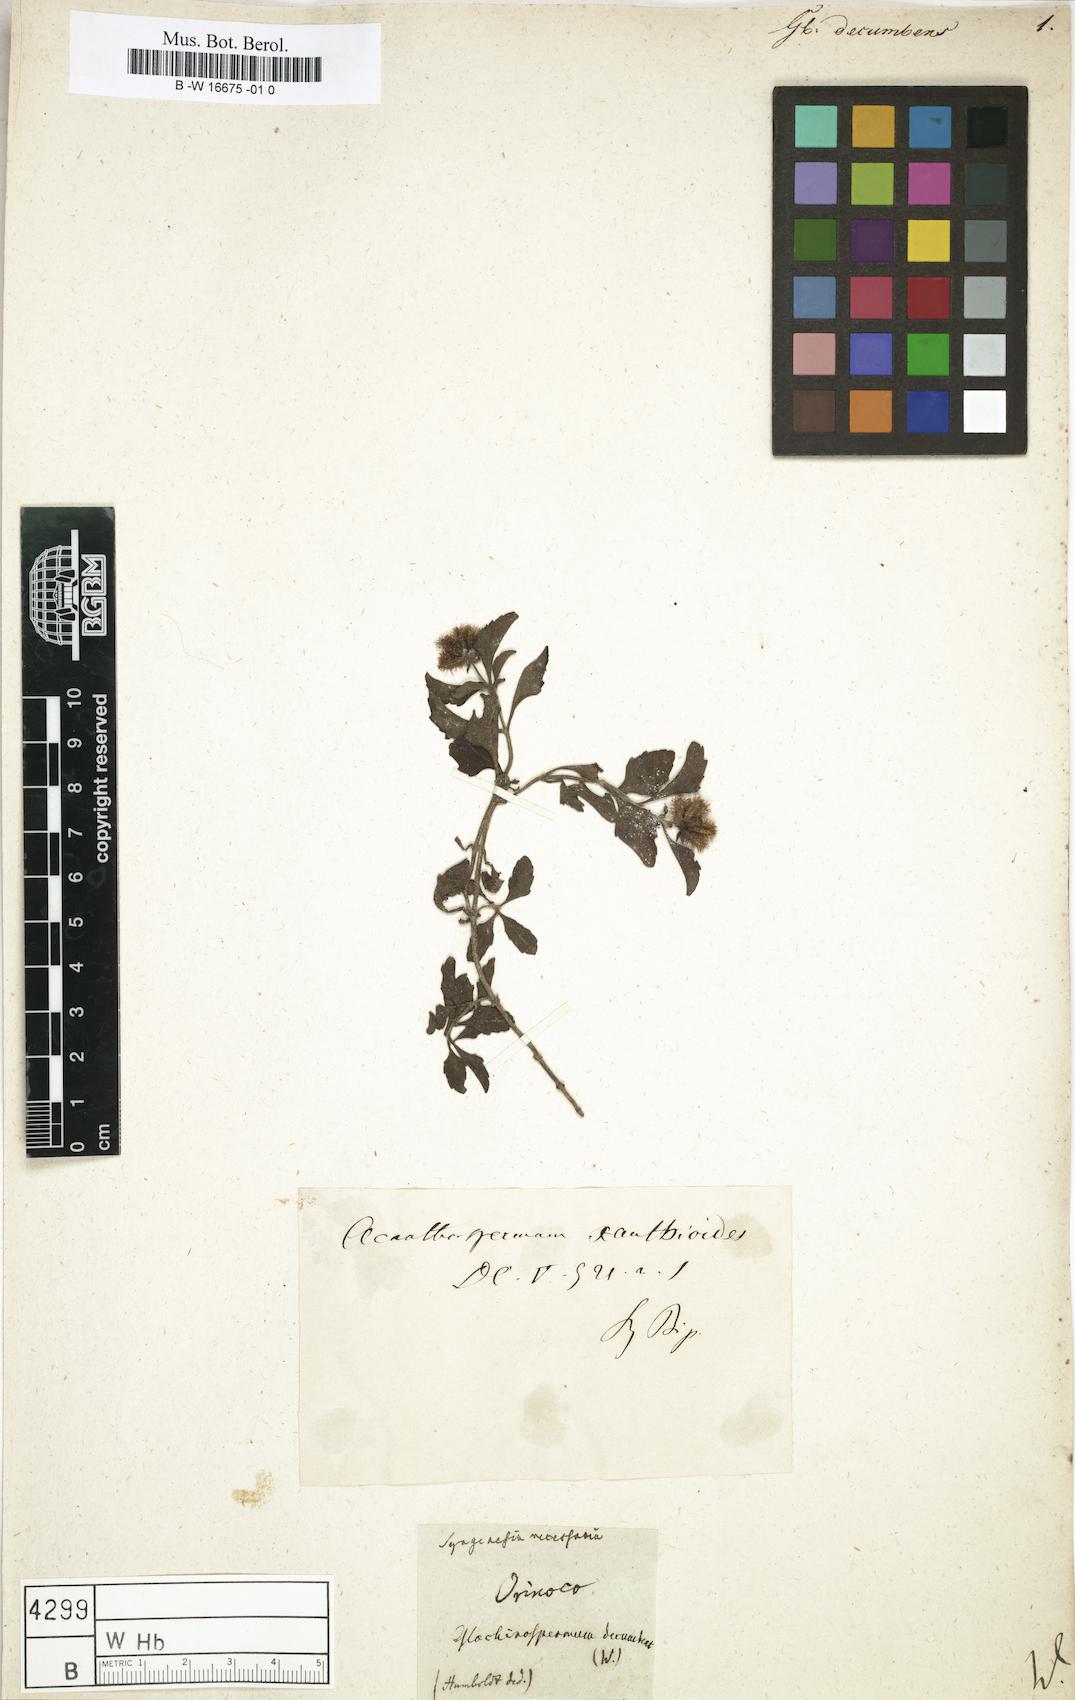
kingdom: Plantae
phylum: Tracheophyta
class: Magnoliopsida
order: Asterales
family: Asteraceae
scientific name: Asteraceae
